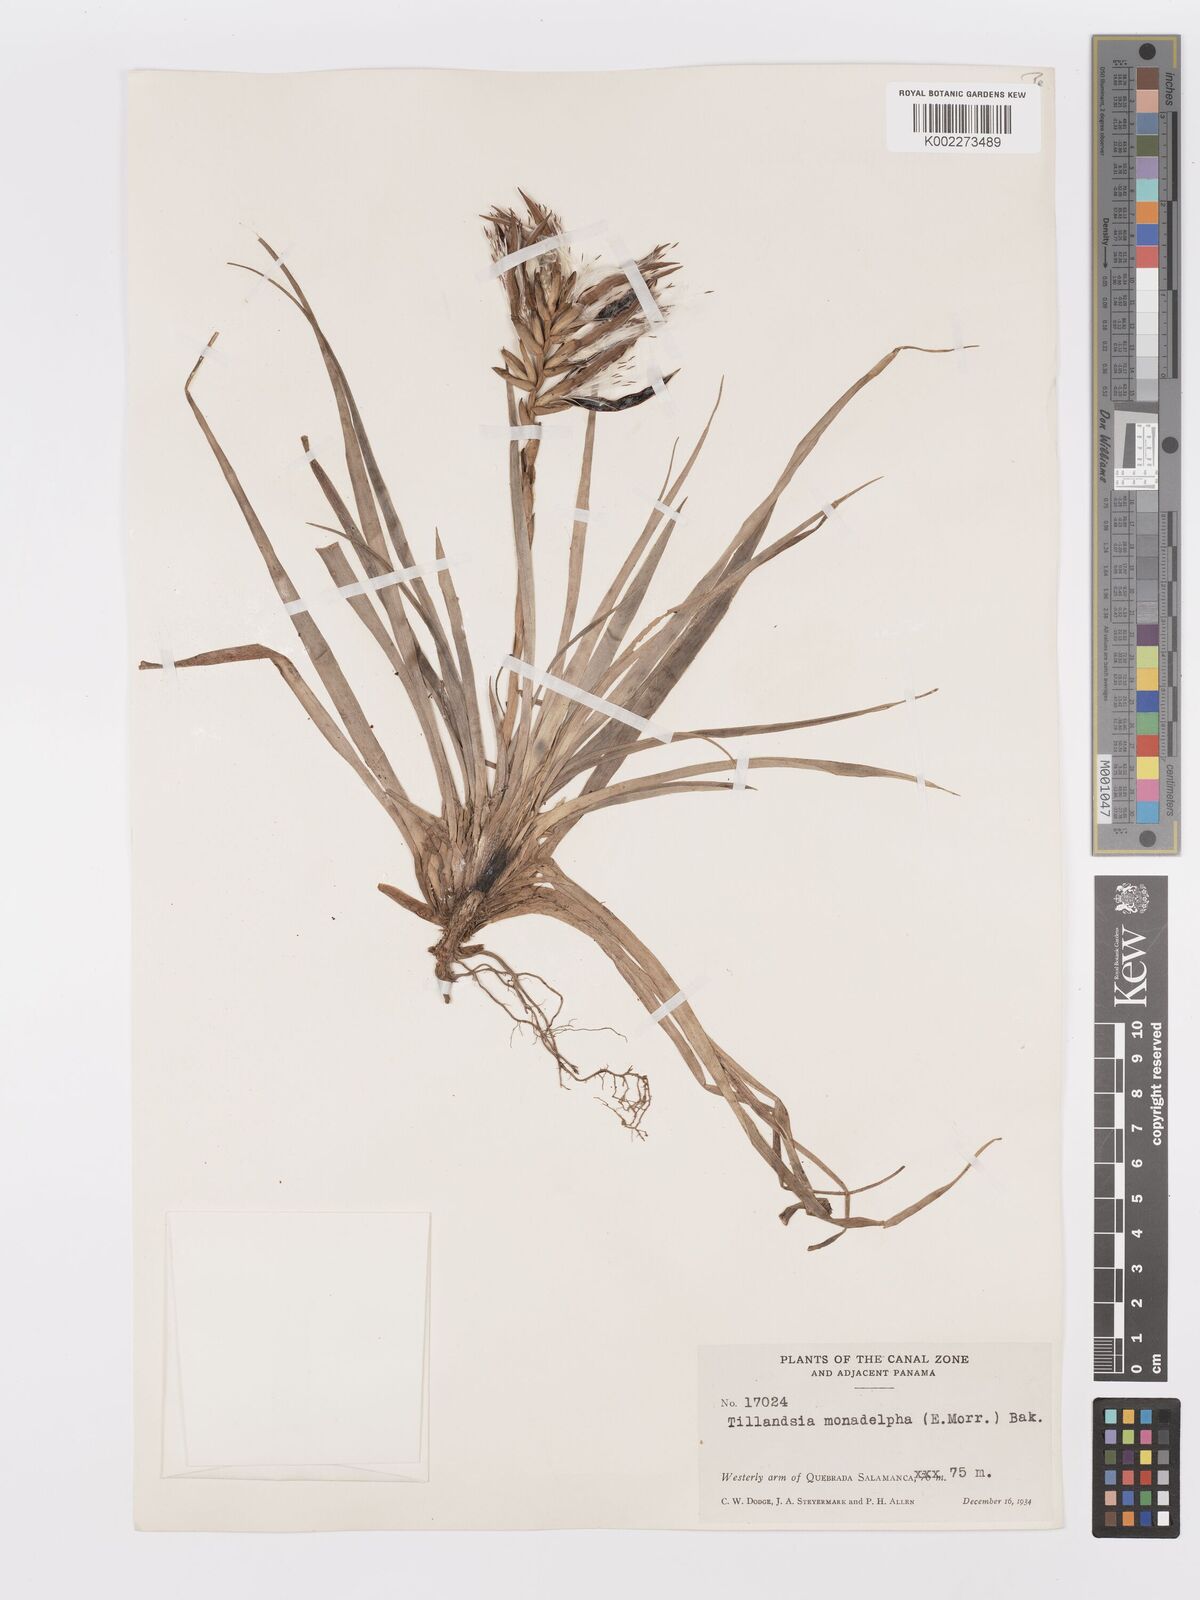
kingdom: Plantae
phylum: Tracheophyta
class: Liliopsida
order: Poales
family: Bromeliaceae
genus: Lemeltonia
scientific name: Lemeltonia monadelpha
